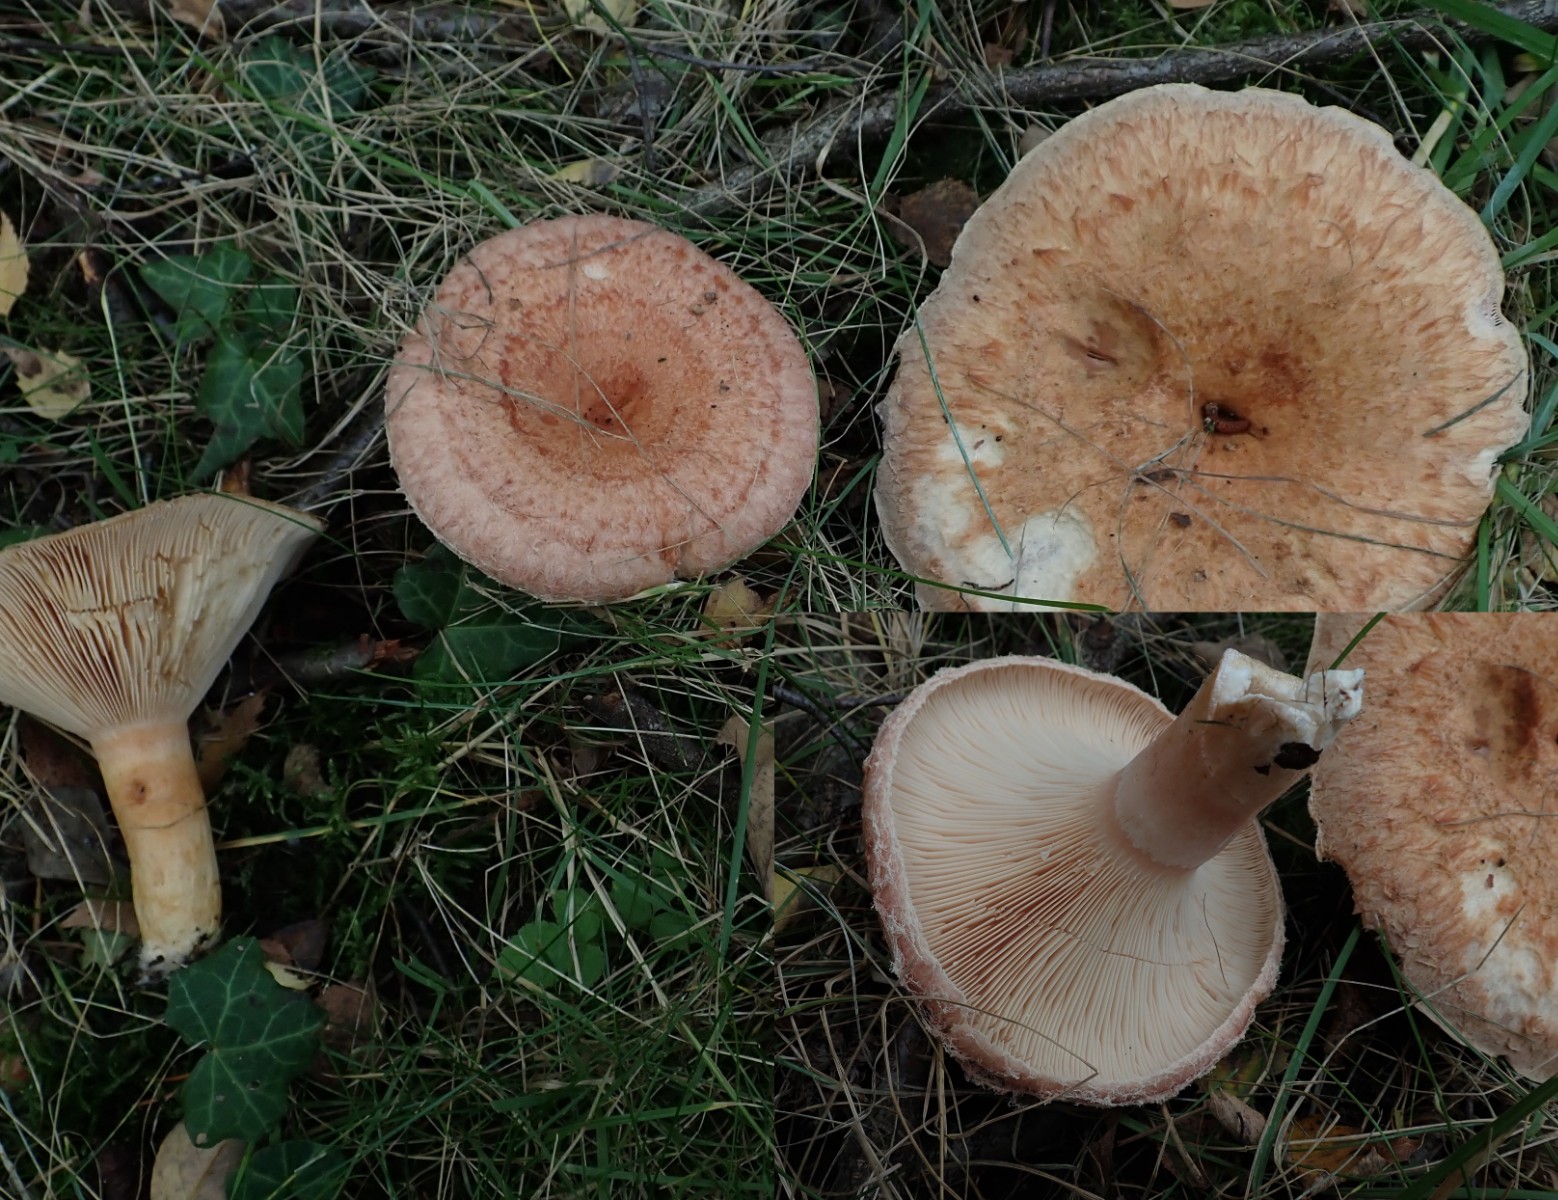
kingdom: Fungi
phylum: Basidiomycota
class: Agaricomycetes
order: Russulales
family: Russulaceae
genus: Lactarius
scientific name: Lactarius torminosus
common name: skægget mælkehat
